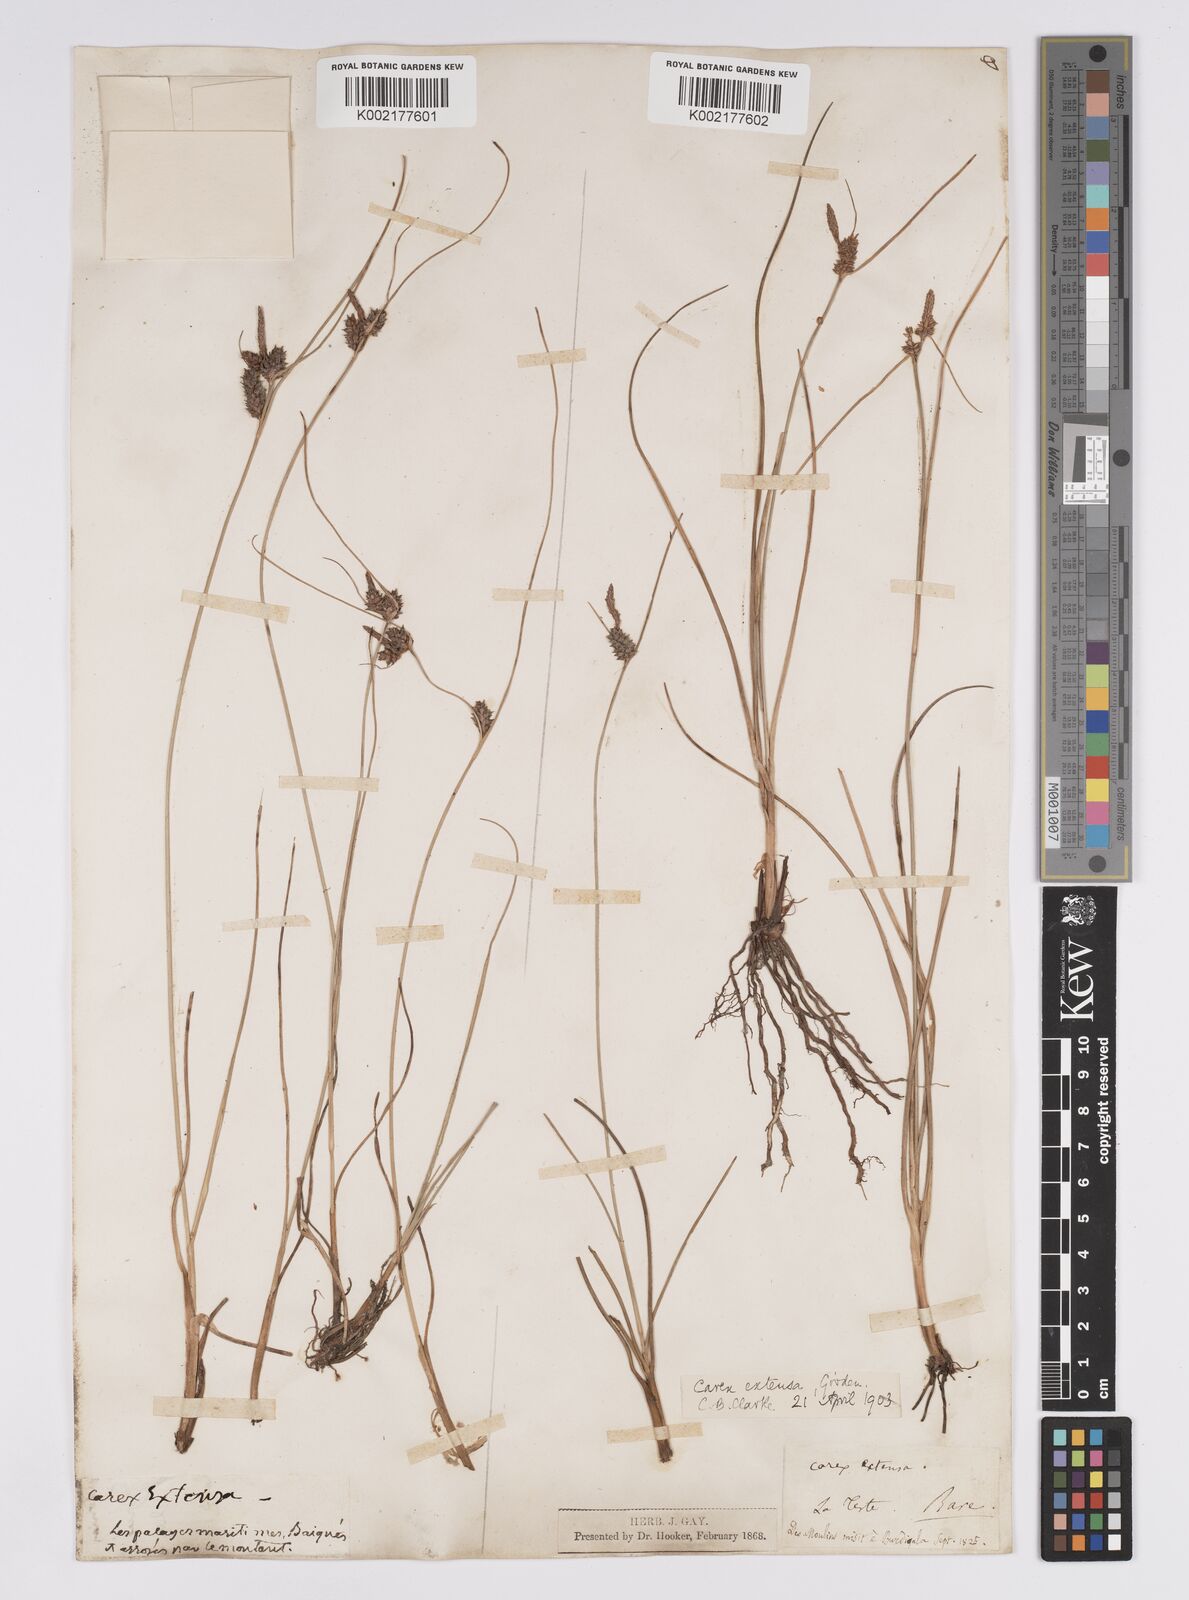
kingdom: Plantae
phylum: Tracheophyta
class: Liliopsida
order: Poales
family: Cyperaceae
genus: Carex
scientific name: Carex extensa
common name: Long-bracted sedge
